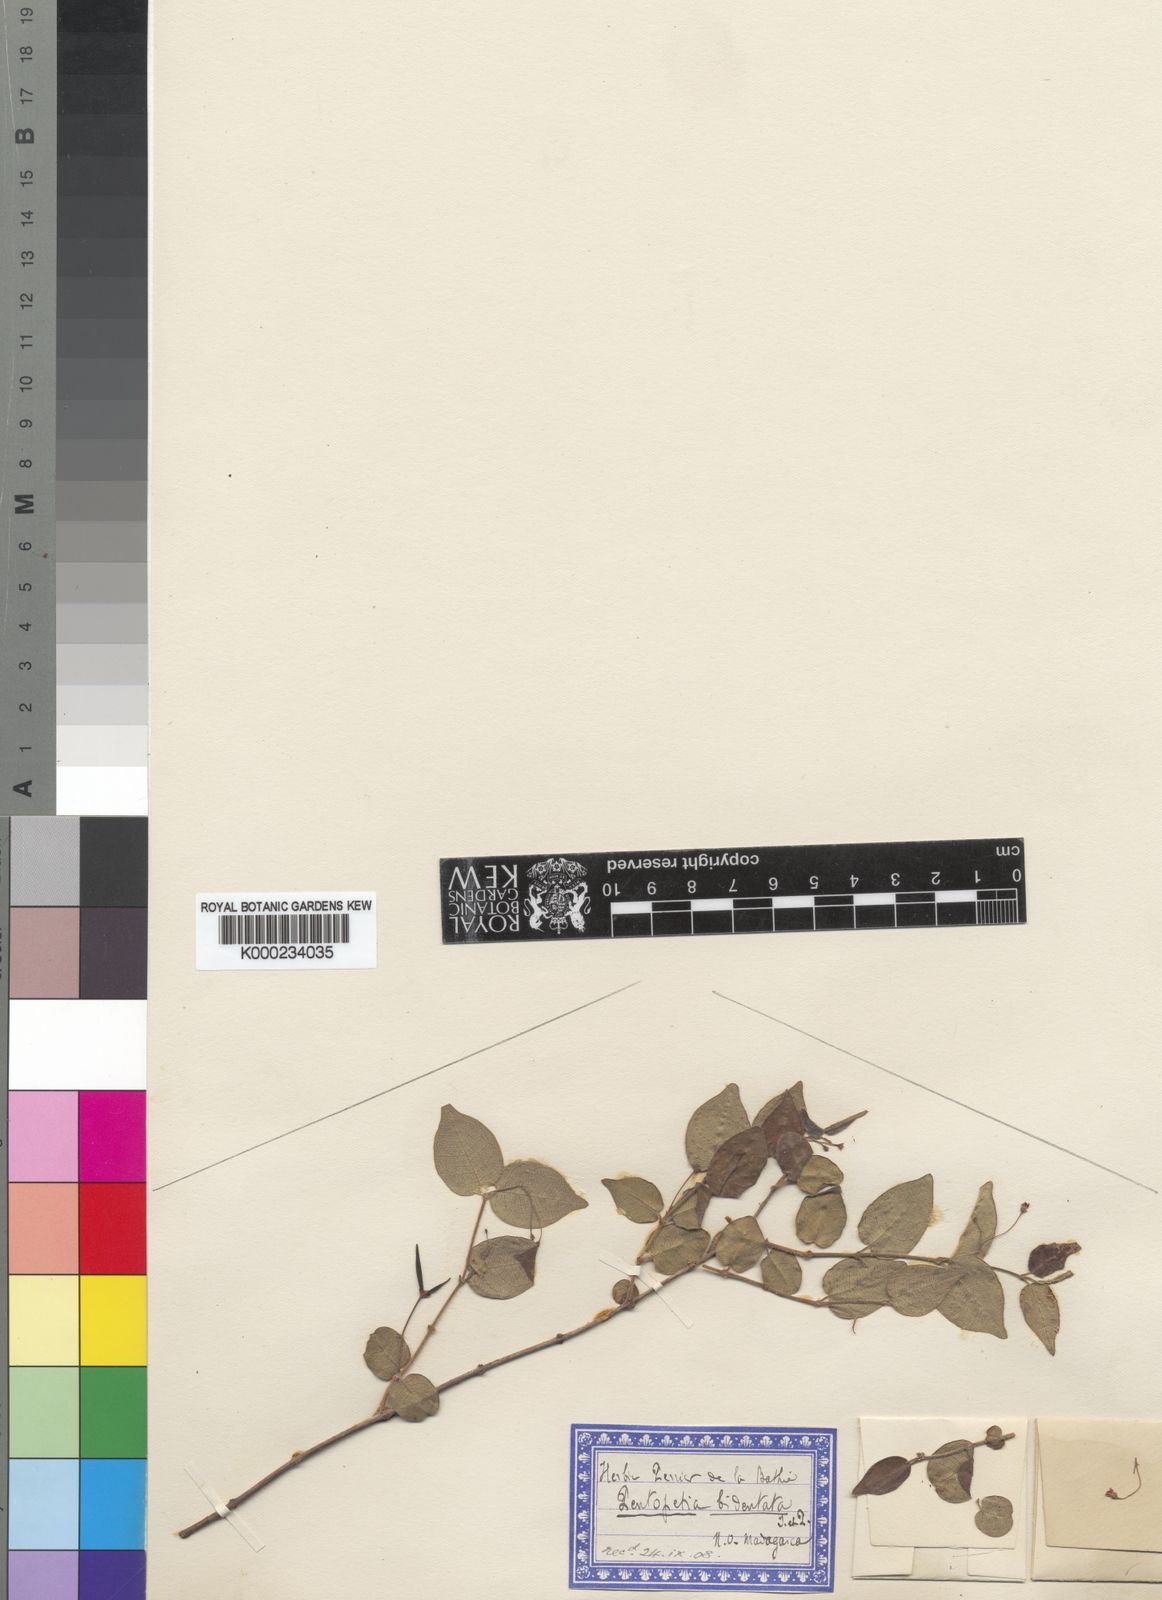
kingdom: Plantae
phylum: Tracheophyta
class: Magnoliopsida
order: Gentianales
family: Apocynaceae
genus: Pentopetia
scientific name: Pentopetia androsaemifolia
